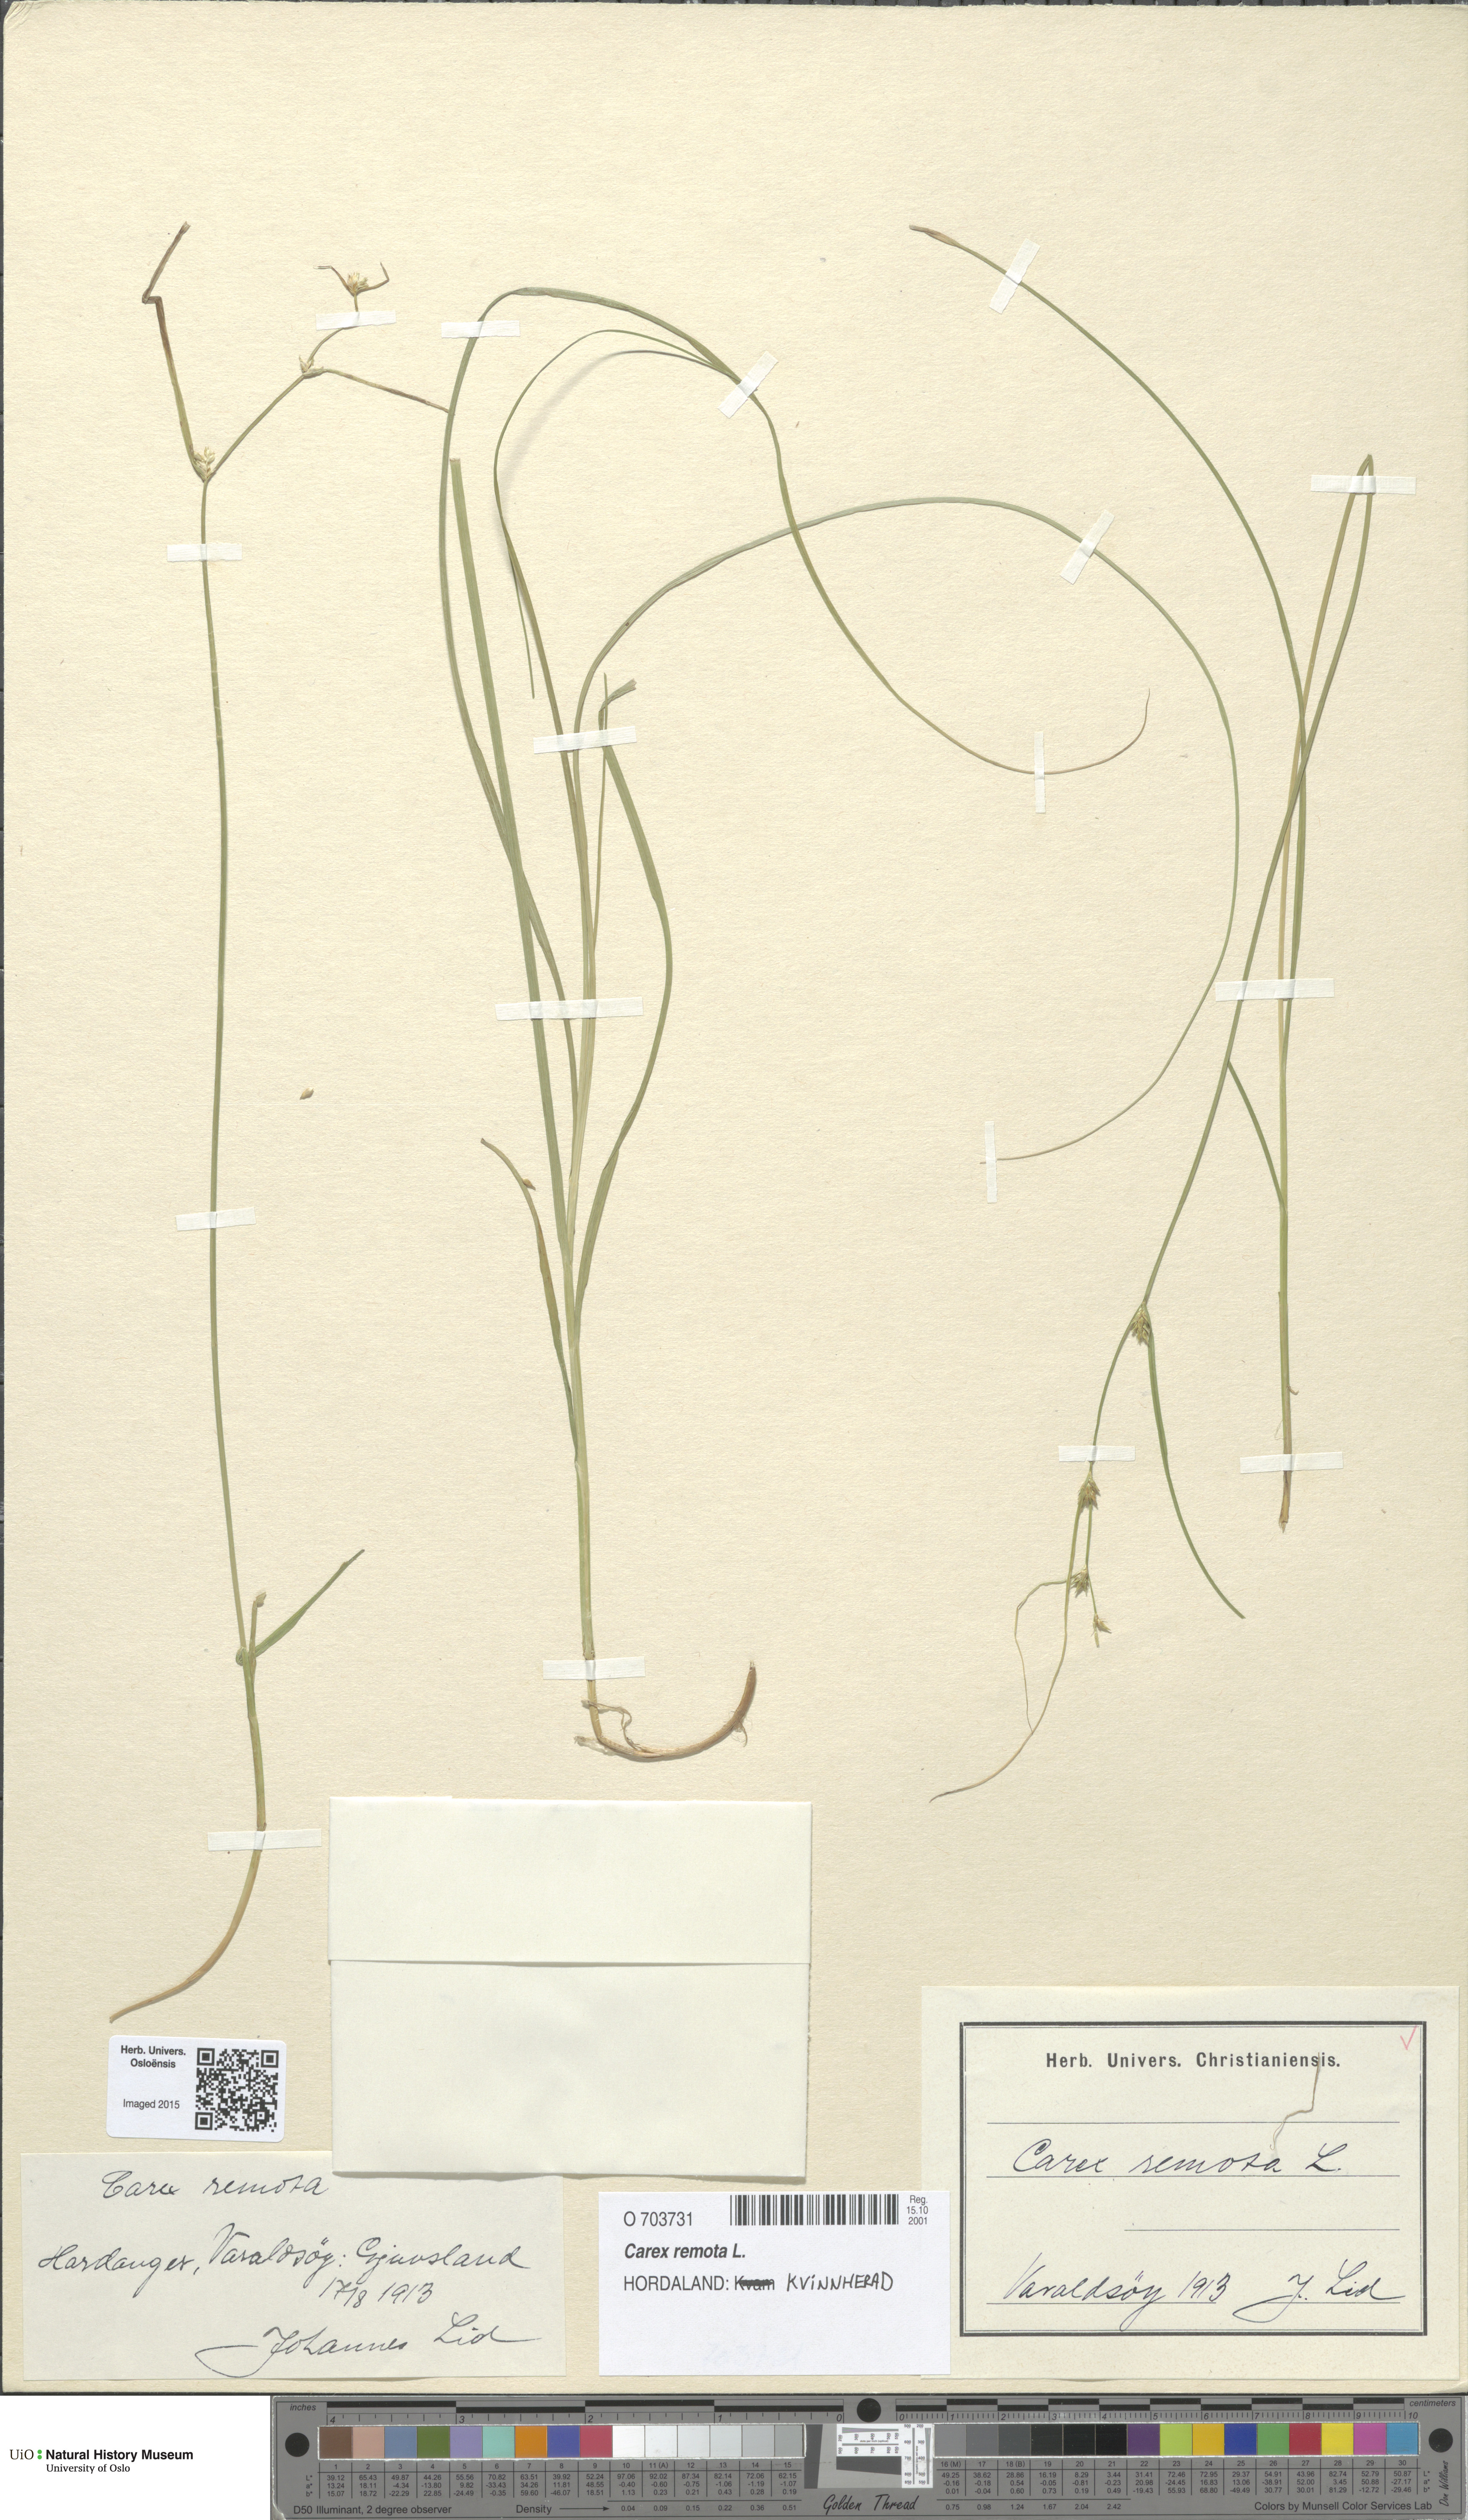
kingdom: Plantae
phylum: Tracheophyta
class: Liliopsida
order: Poales
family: Cyperaceae
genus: Carex
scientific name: Carex remota
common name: Remote sedge
